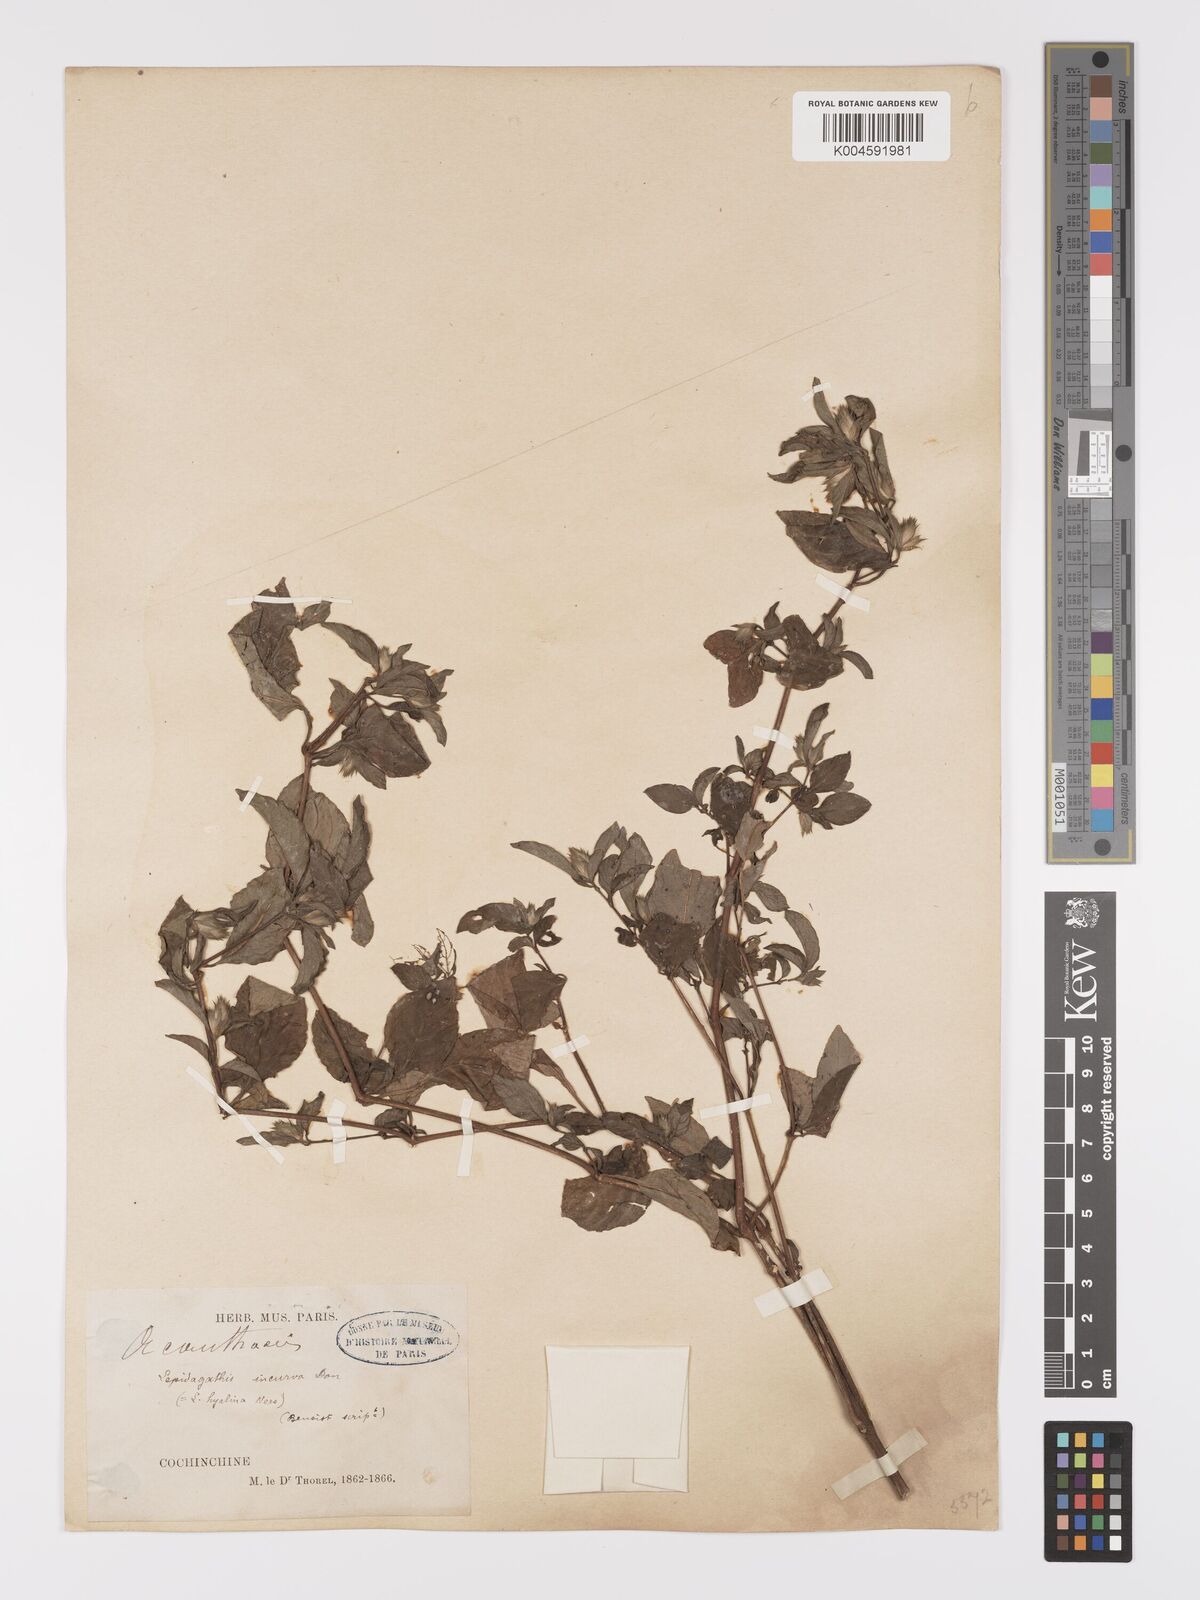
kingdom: Plantae
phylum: Tracheophyta
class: Magnoliopsida
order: Lamiales
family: Acanthaceae
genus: Lepidagathis
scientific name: Lepidagathis incurva
